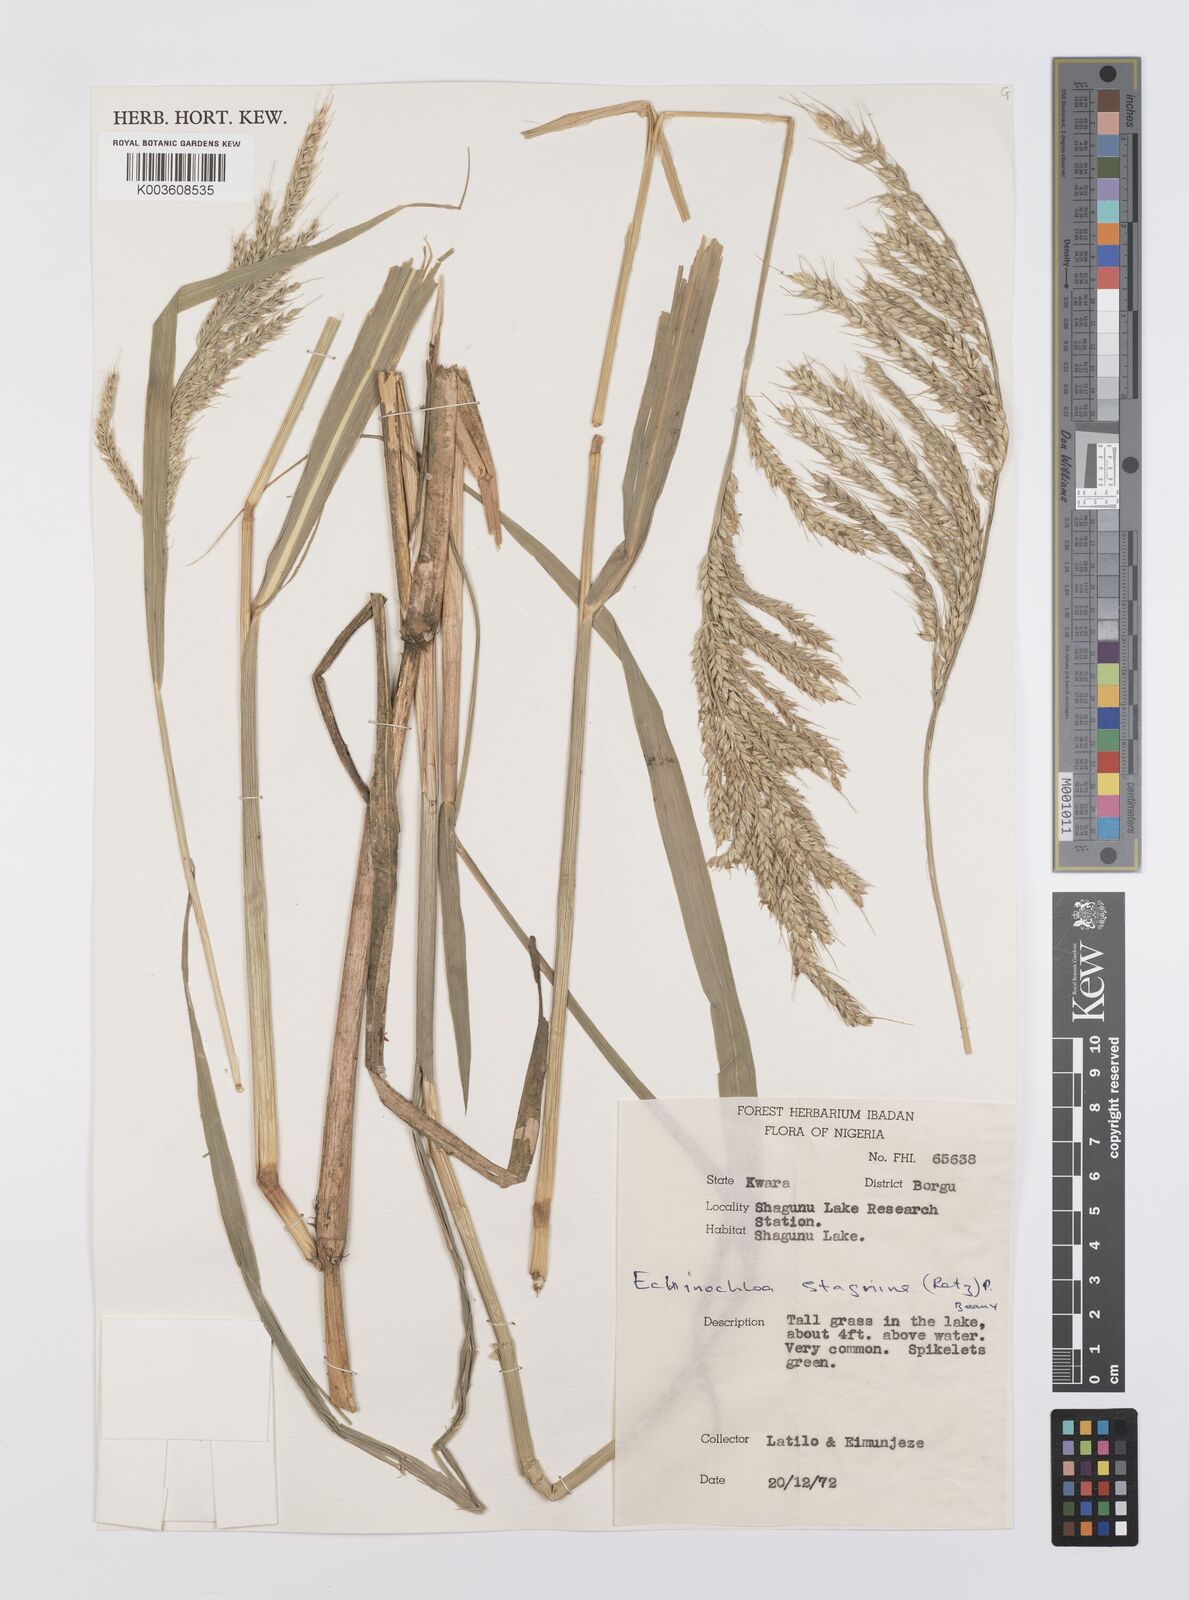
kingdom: Plantae
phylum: Tracheophyta
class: Liliopsida
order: Poales
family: Poaceae
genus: Echinochloa
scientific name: Echinochloa stagnina
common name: Burgu grass
